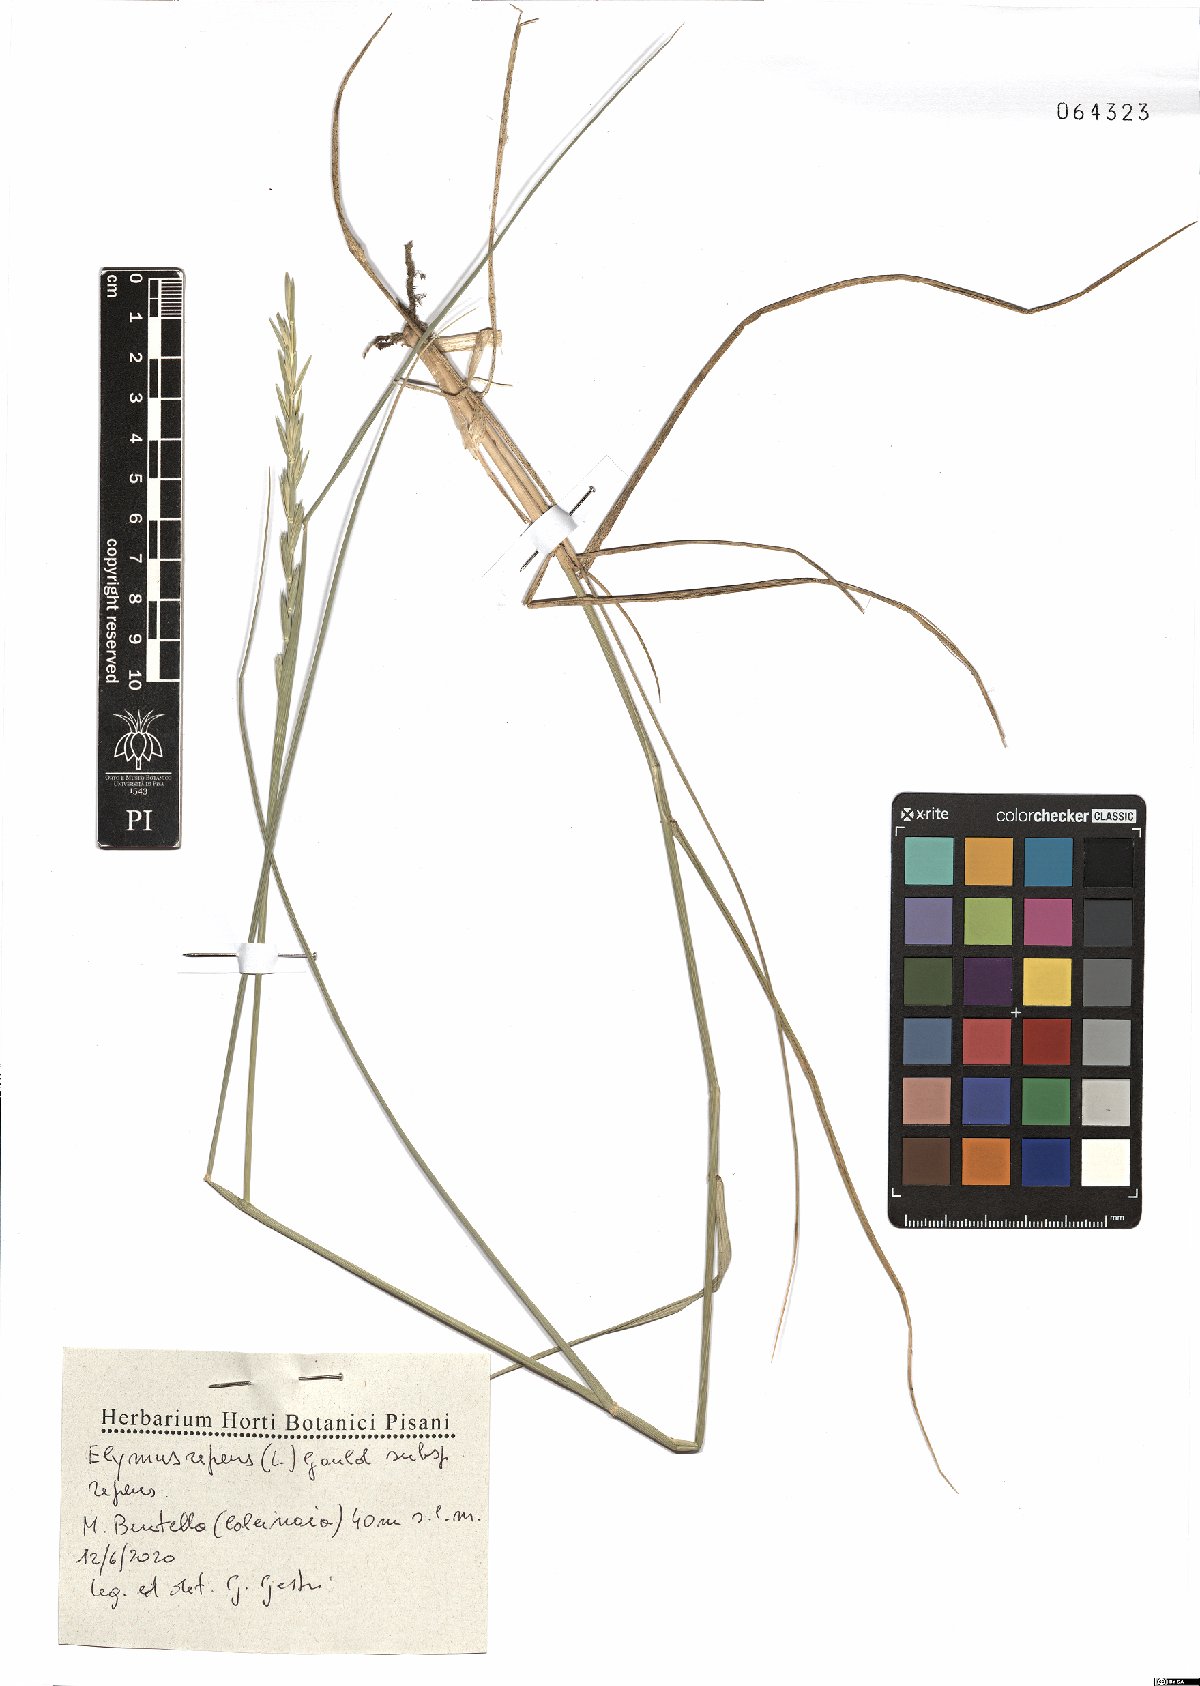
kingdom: Plantae
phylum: Tracheophyta
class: Liliopsida
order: Poales
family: Poaceae
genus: Elymus
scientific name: Elymus repens
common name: Quackgrass
